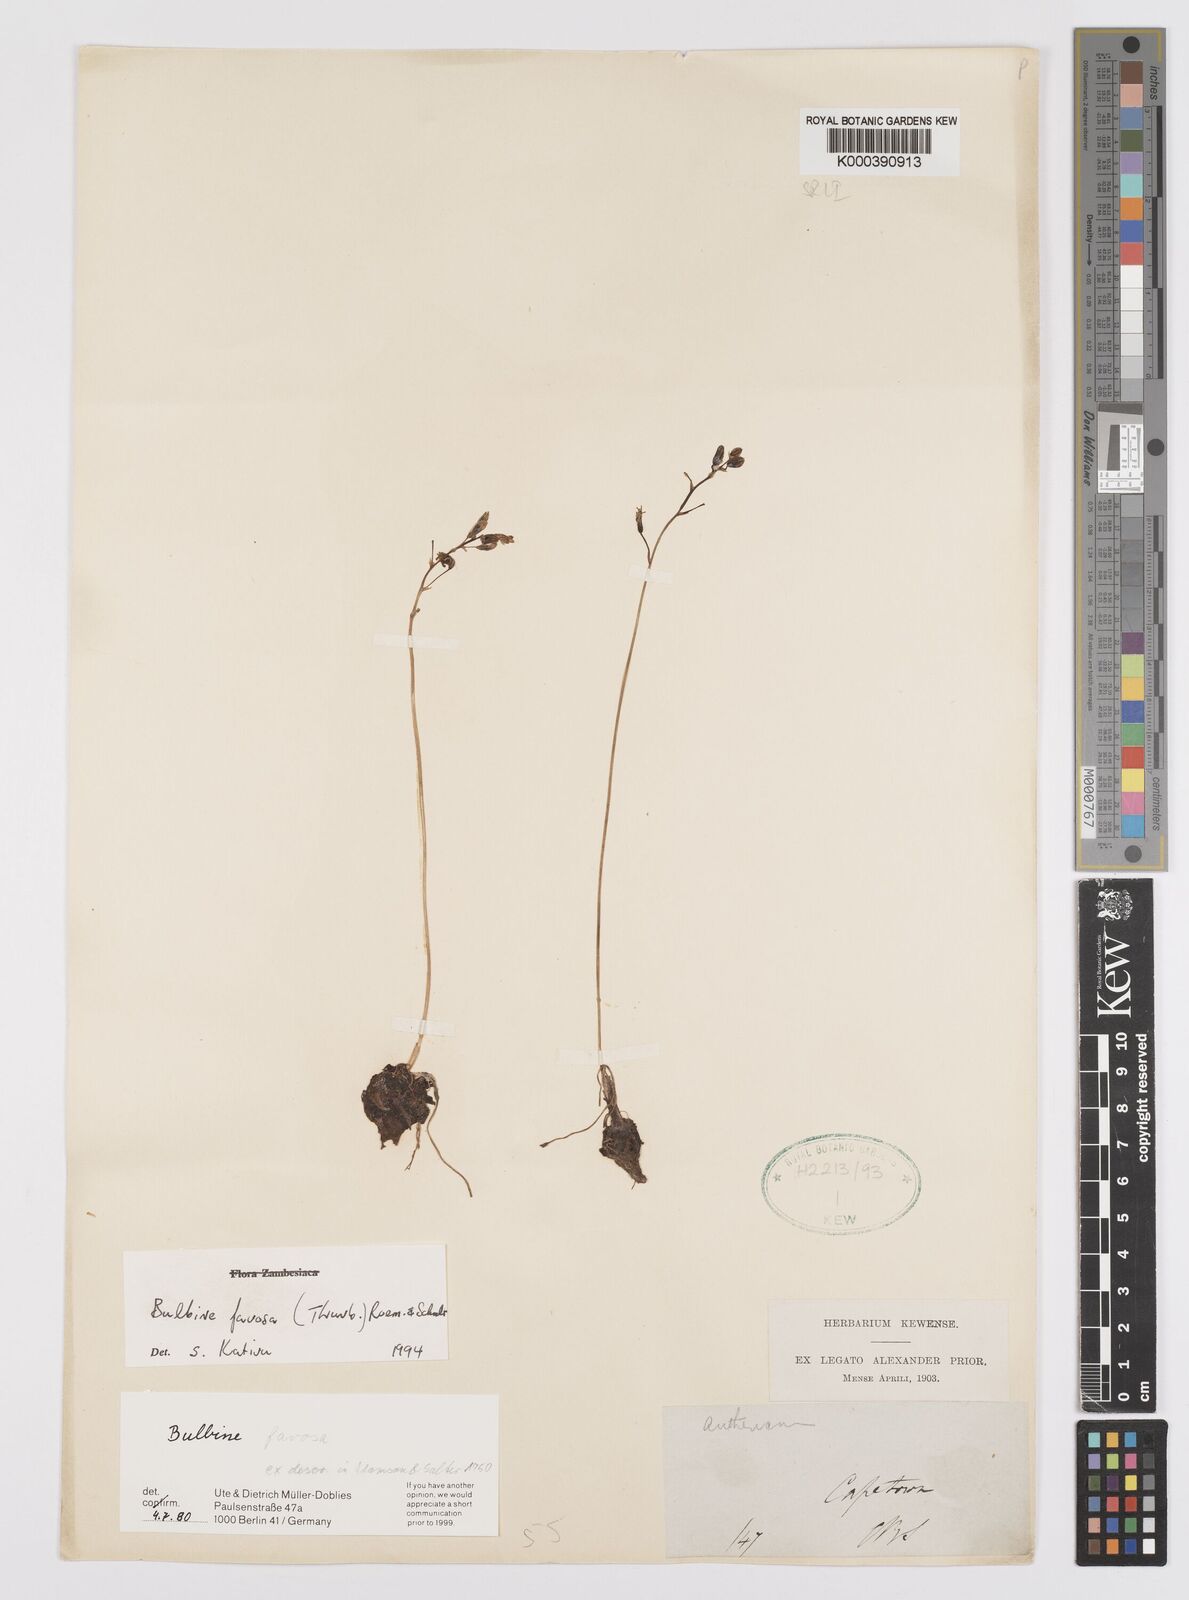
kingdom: Plantae
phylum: Tracheophyta
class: Liliopsida
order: Asparagales
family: Asphodelaceae
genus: Bulbine
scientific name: Bulbine favosa
